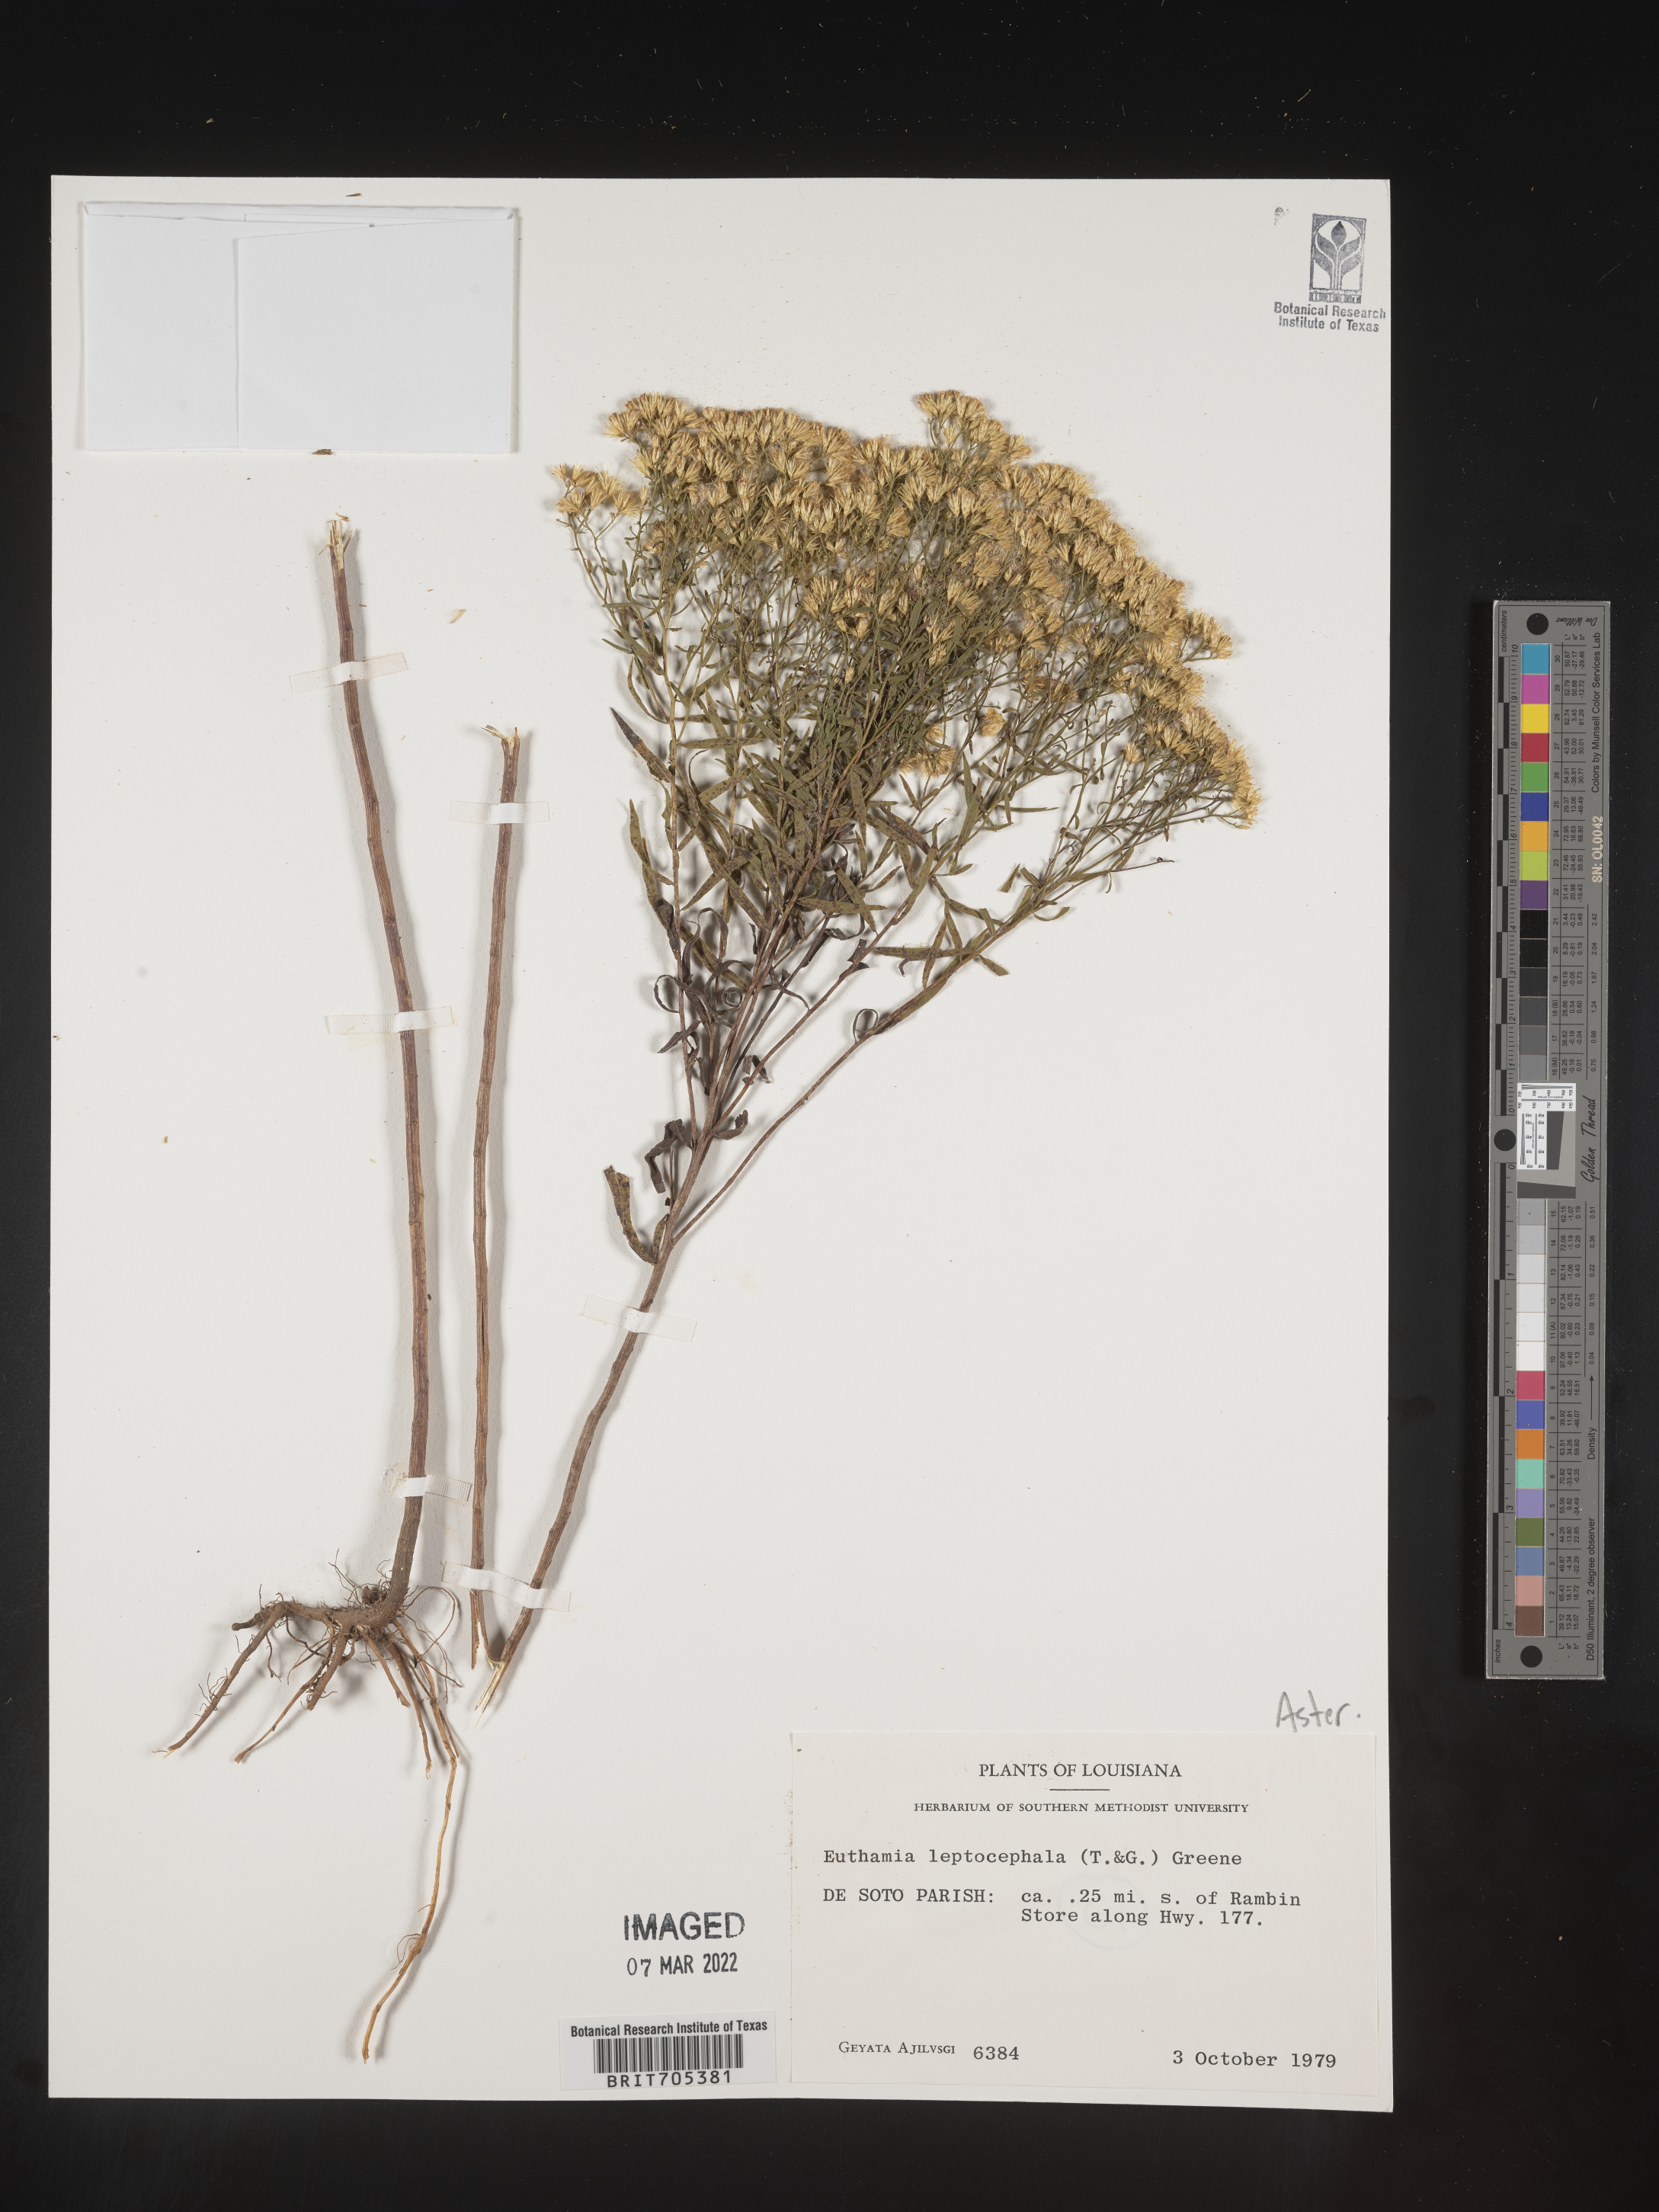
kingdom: Plantae
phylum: Tracheophyta
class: Magnoliopsida
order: Asterales
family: Asteraceae
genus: Euthamia
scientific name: Euthamia leptocephala
